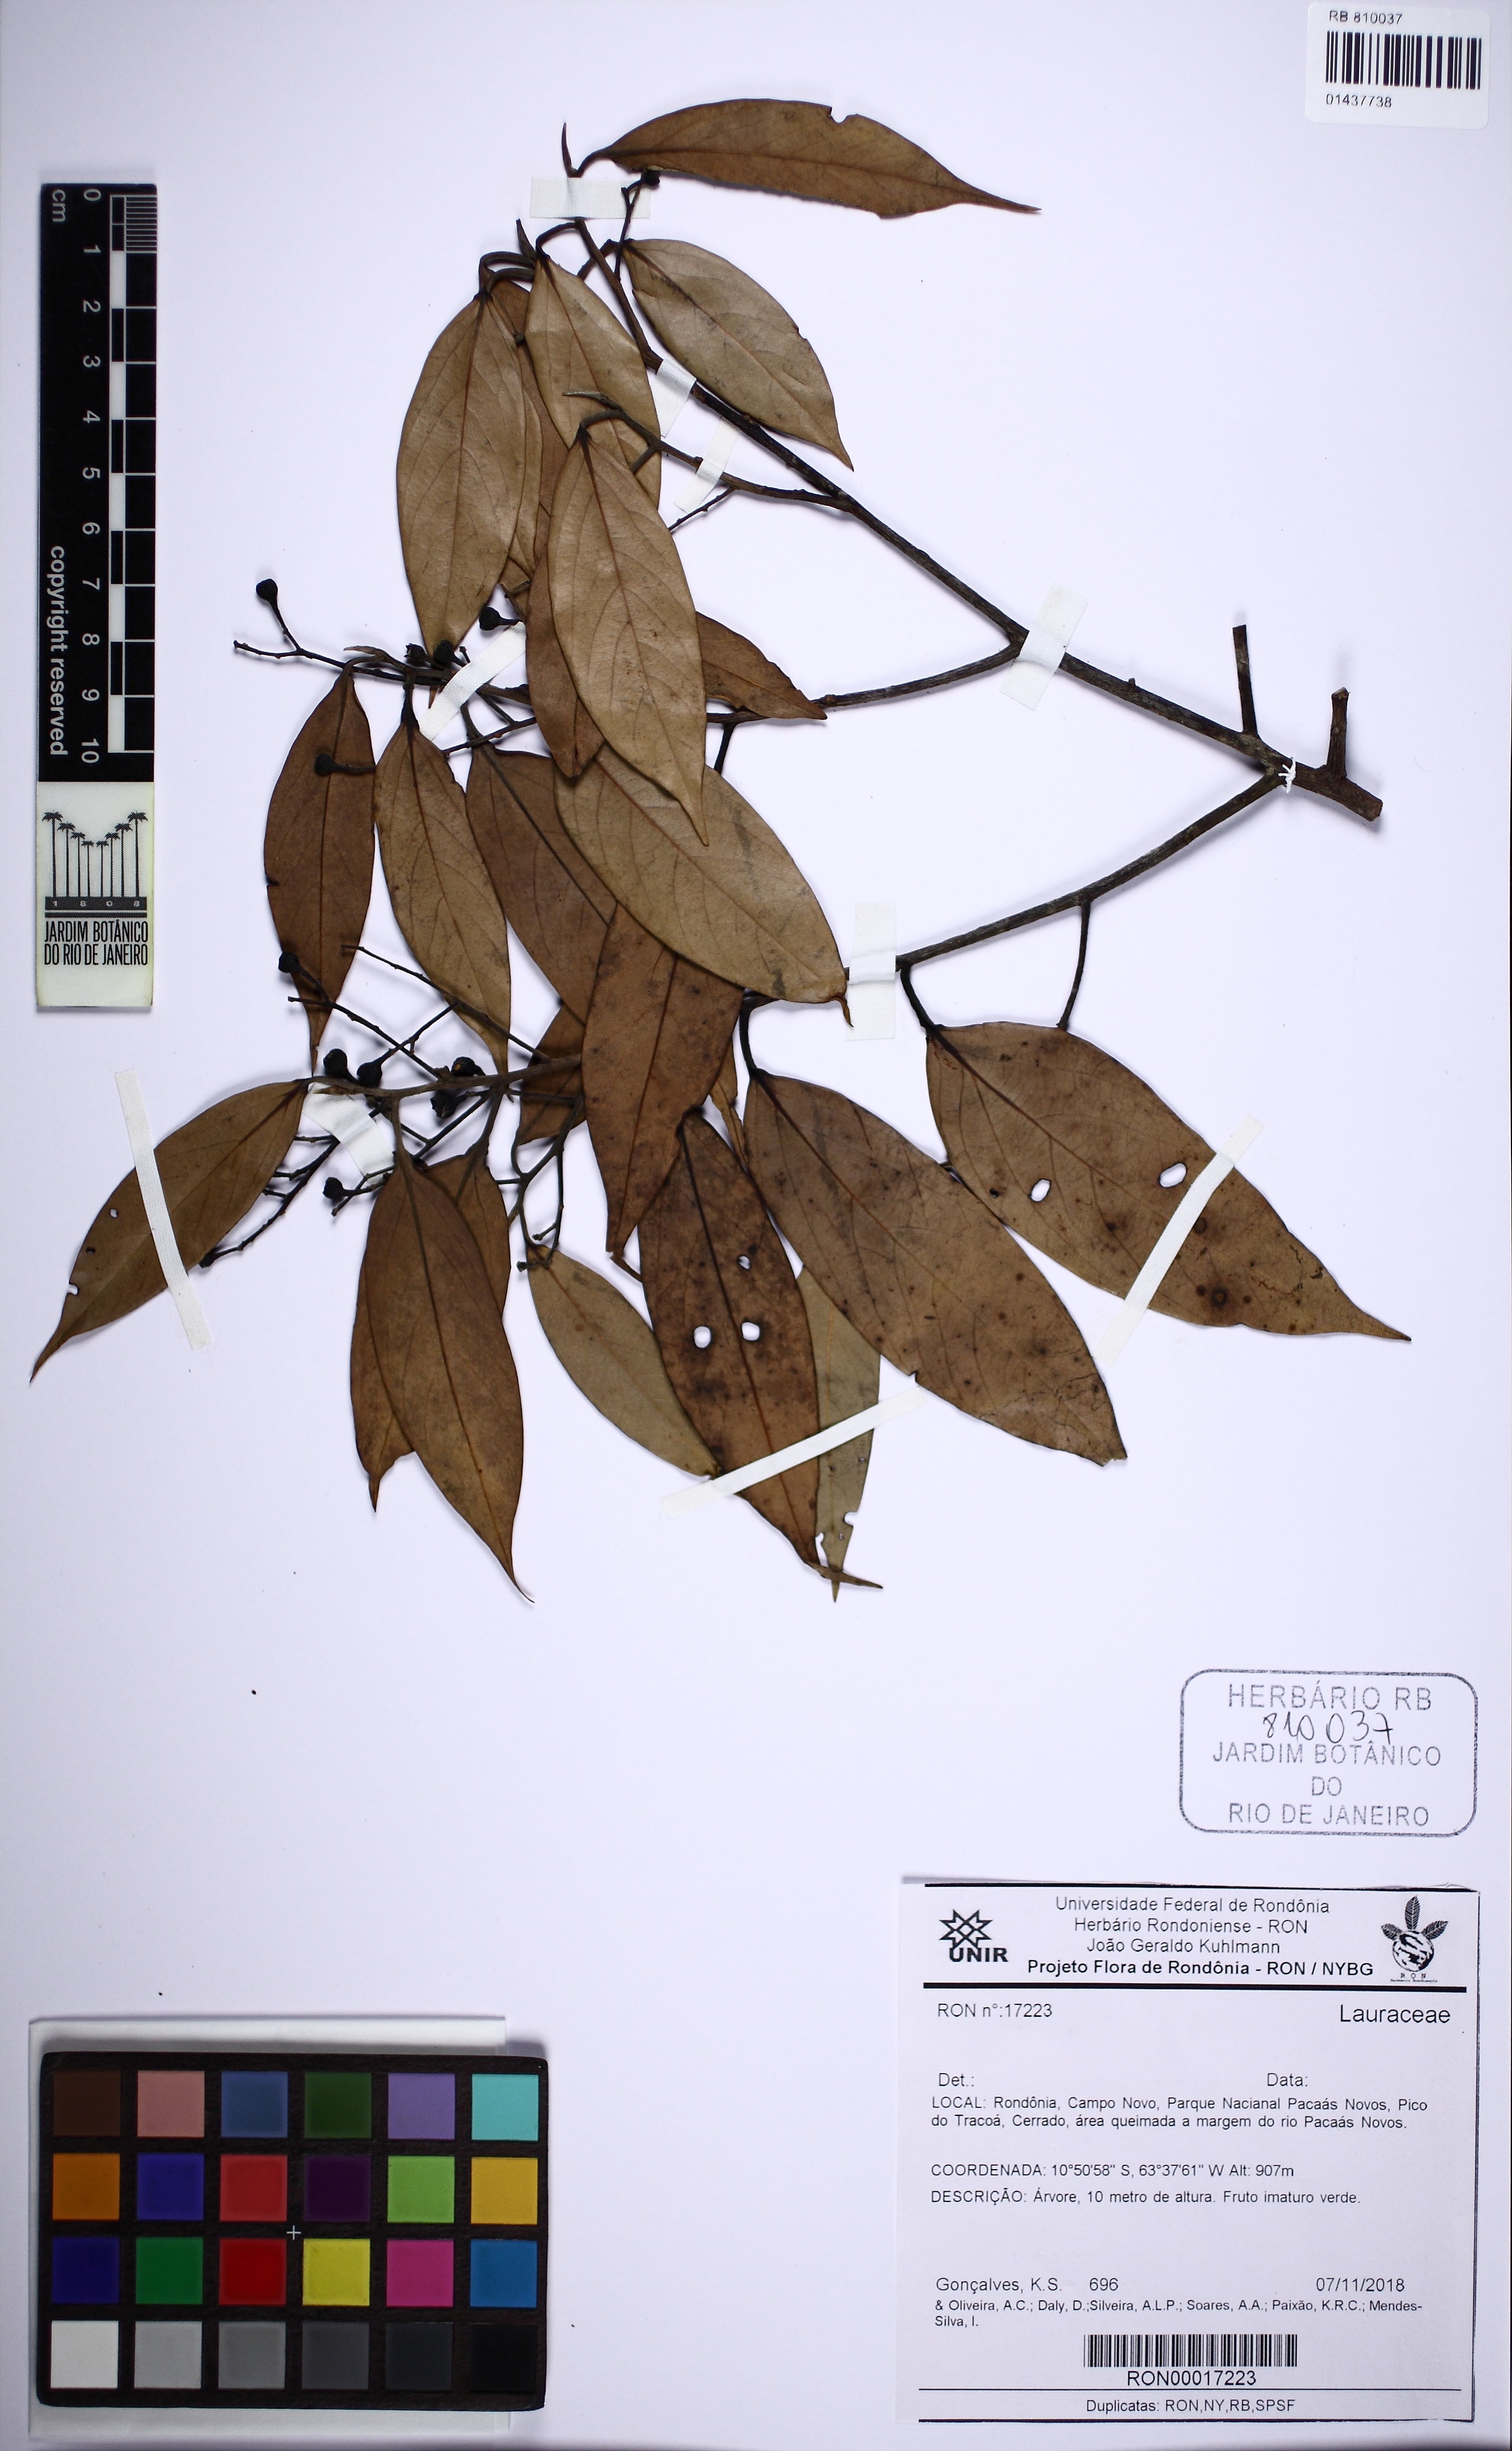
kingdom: Plantae
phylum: Tracheophyta
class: Magnoliopsida
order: Laurales
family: Lauraceae
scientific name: Lauraceae
